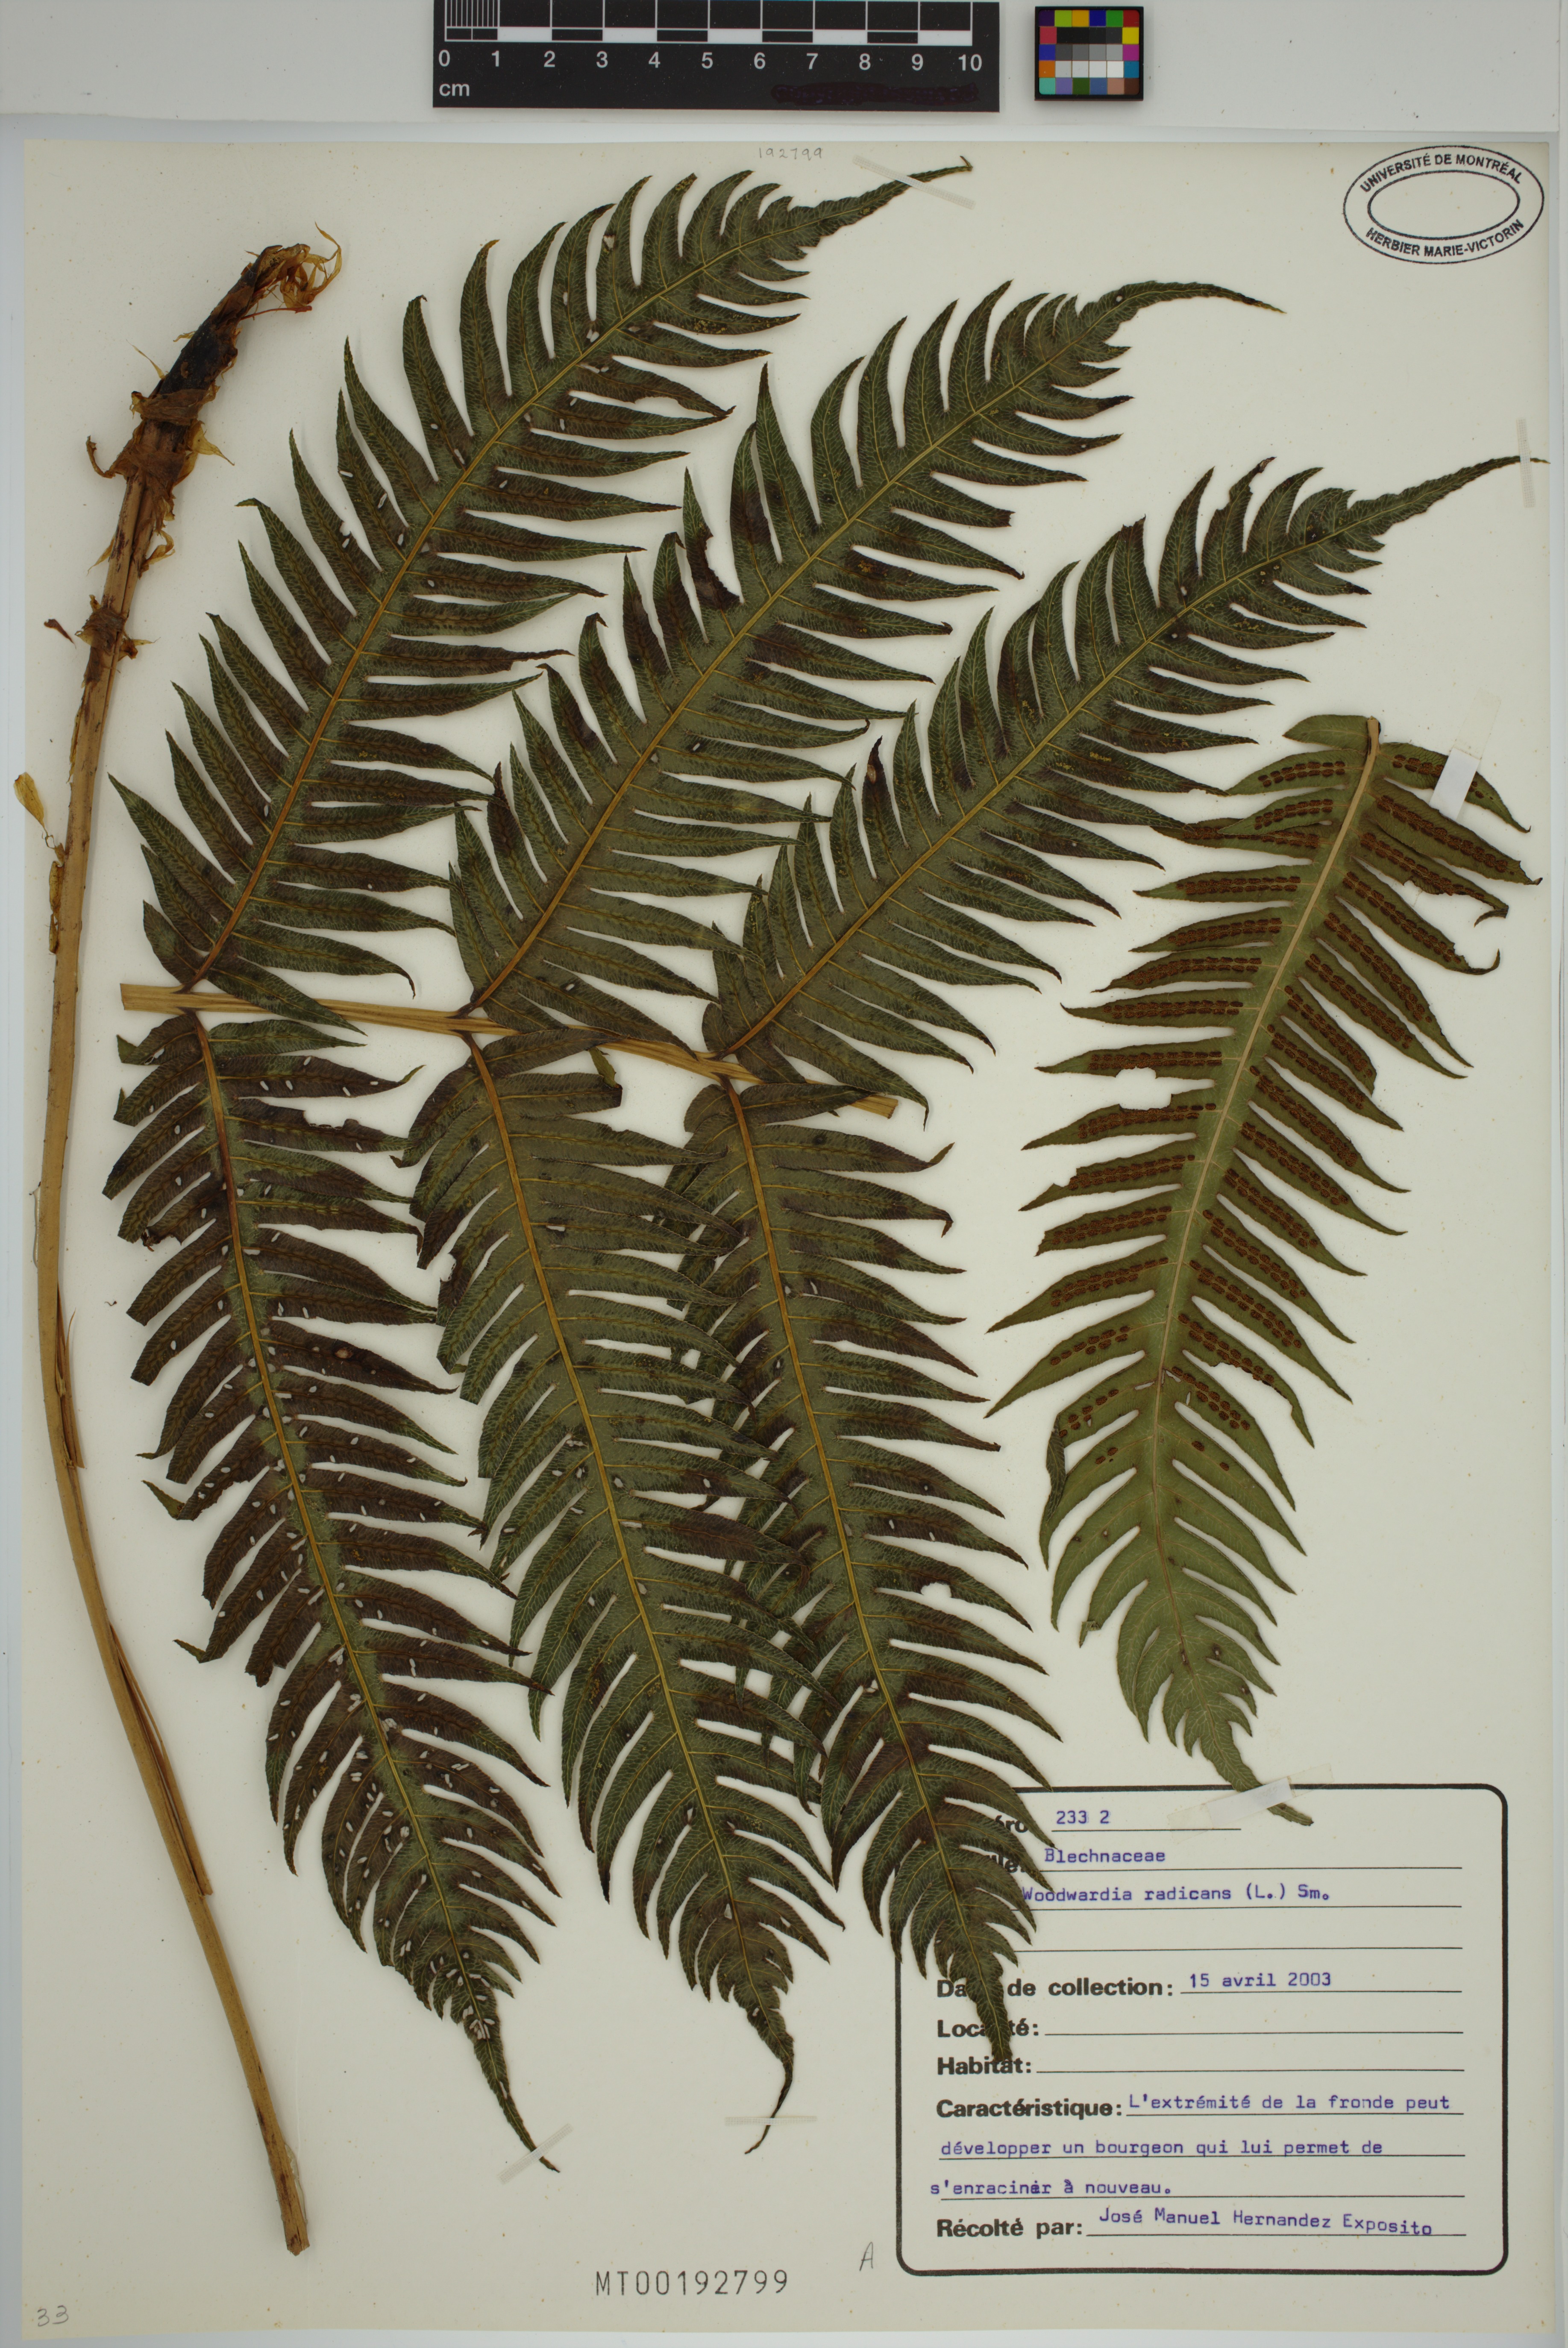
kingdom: Plantae
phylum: Tracheophyta
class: Polypodiopsida
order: Polypodiales
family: Blechnaceae
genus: Woodwardia
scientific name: Woodwardia radicans
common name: Rooting chainfern
